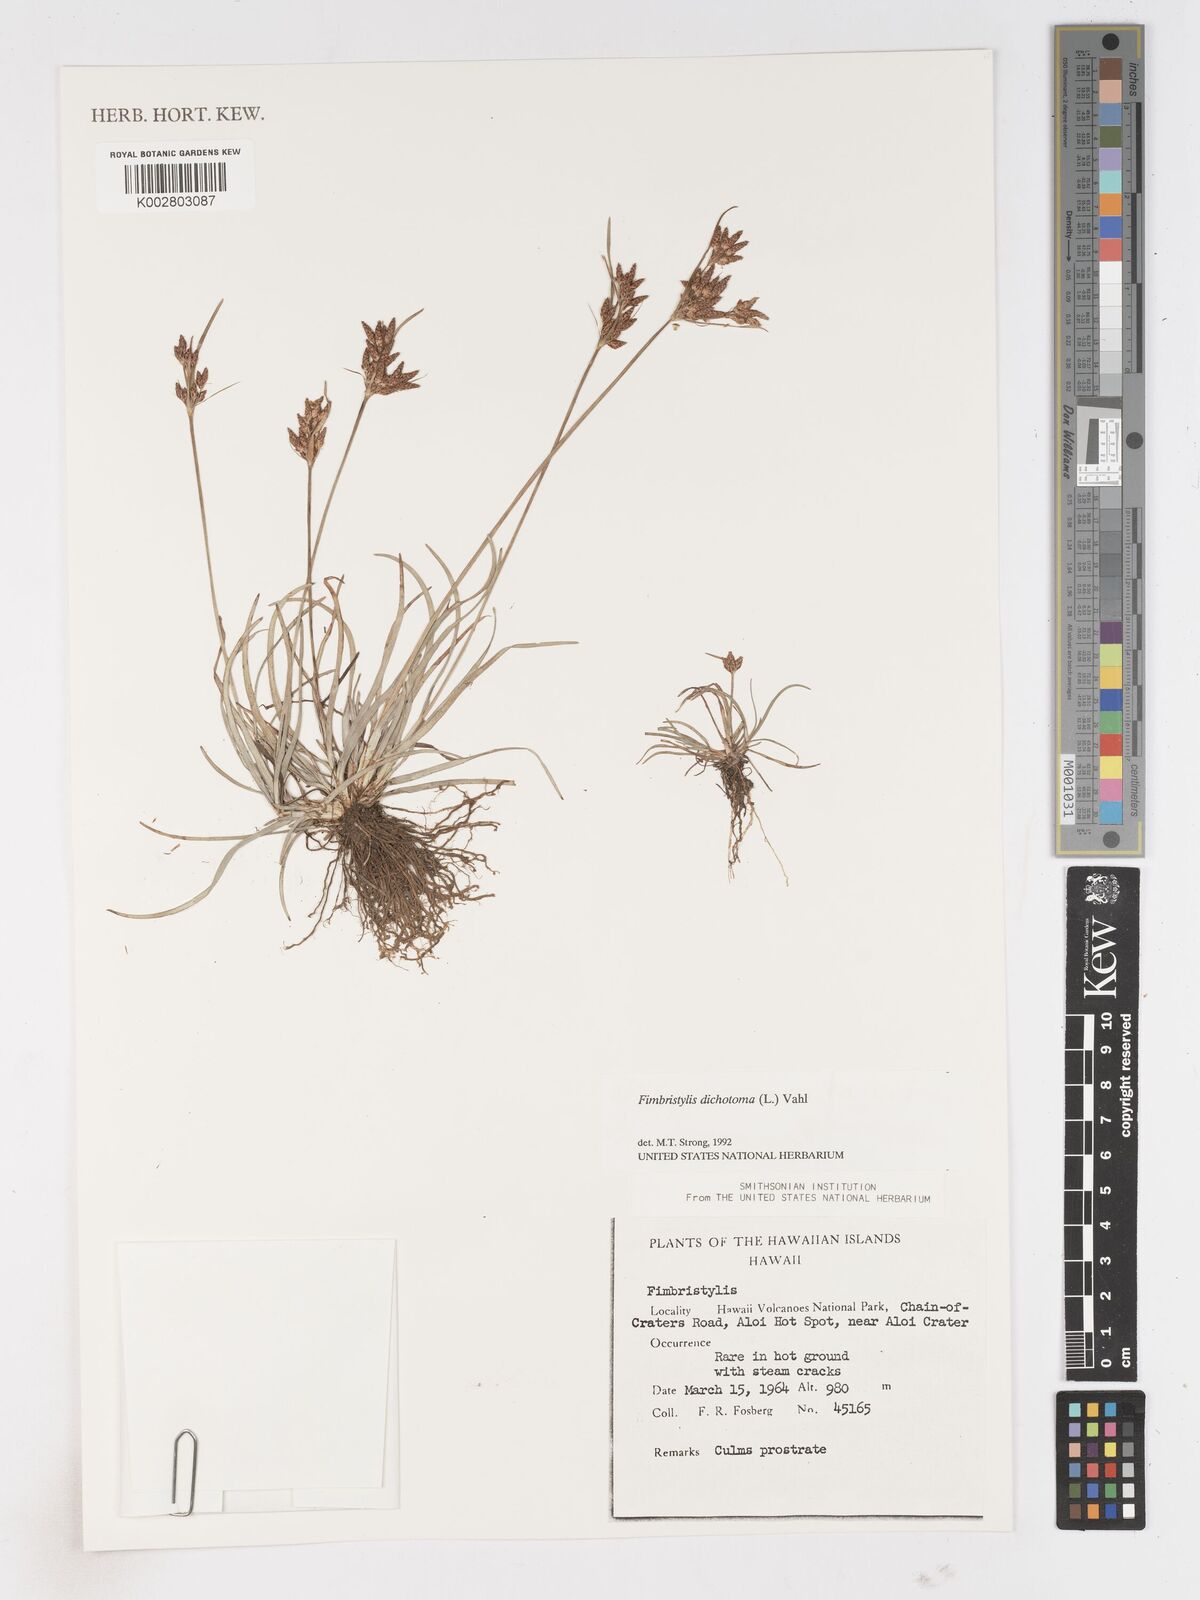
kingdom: Plantae
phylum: Tracheophyta
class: Liliopsida
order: Poales
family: Cyperaceae
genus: Fimbristylis
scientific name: Fimbristylis dichotoma
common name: Forked fimbry
